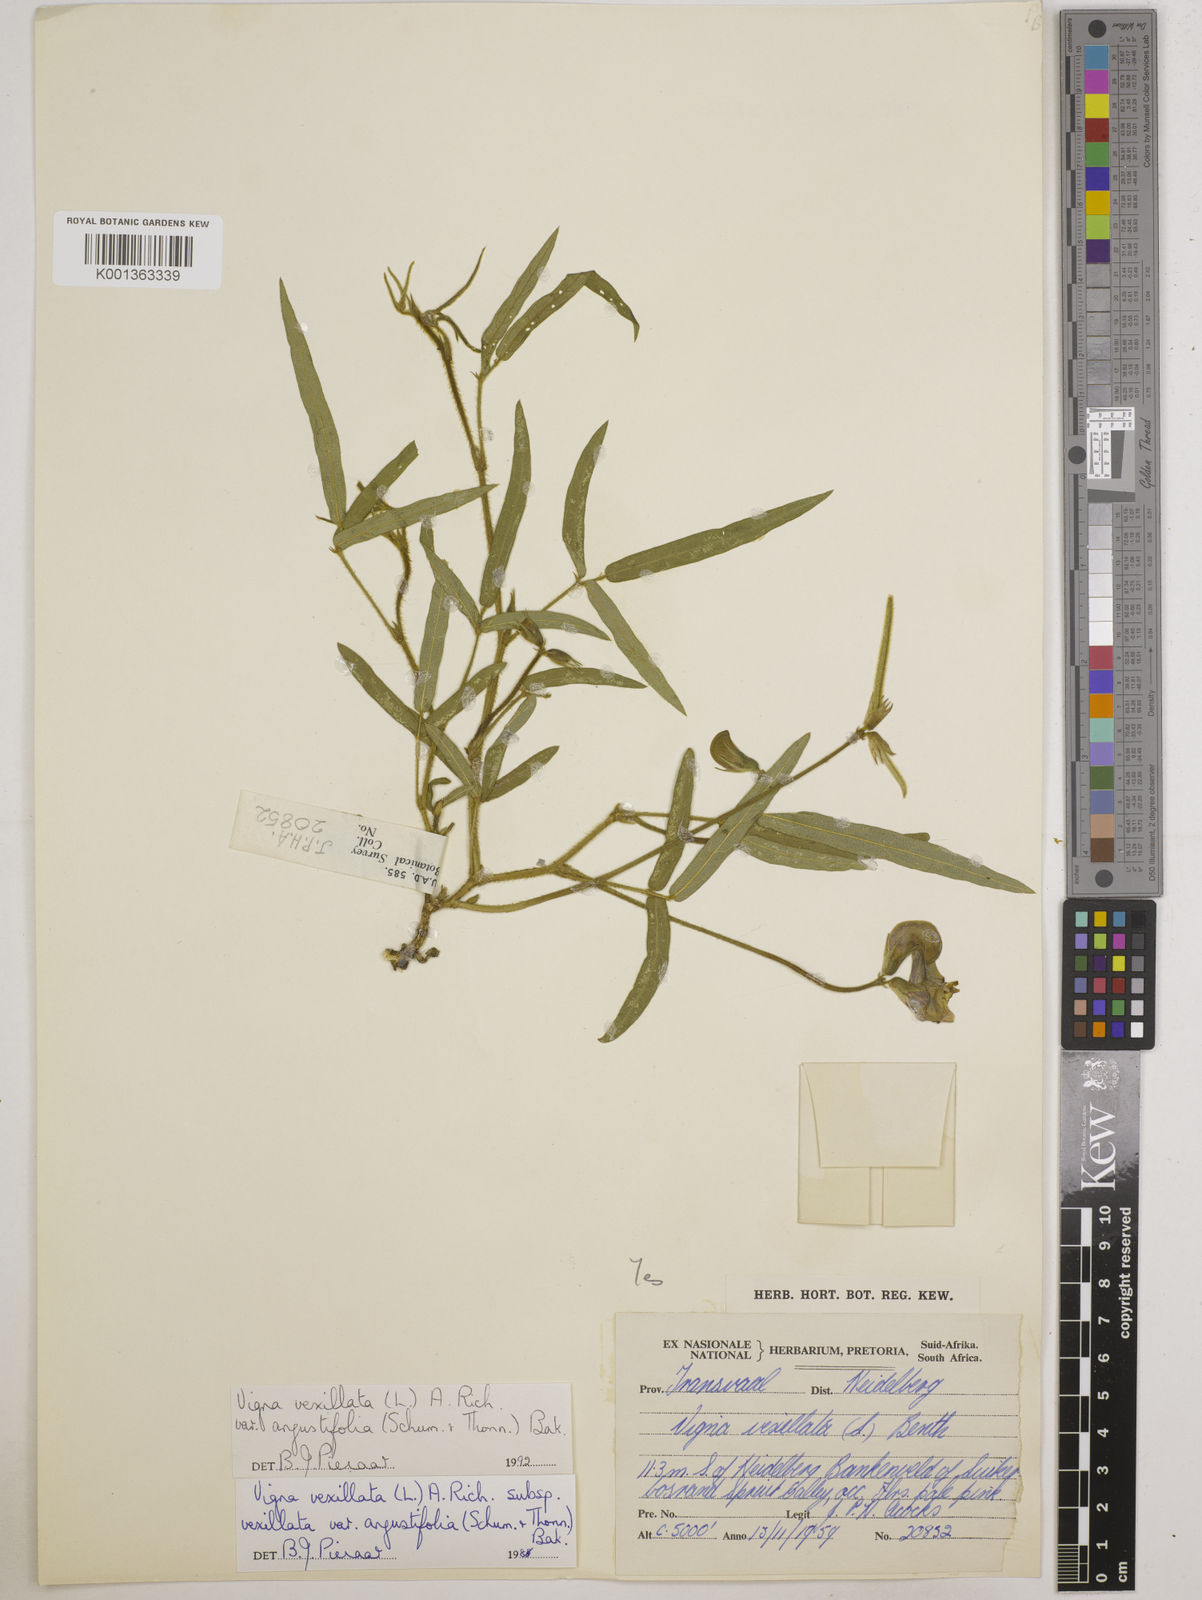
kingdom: Plantae
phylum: Tracheophyta
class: Magnoliopsida
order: Fabales
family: Fabaceae
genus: Vigna
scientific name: Vigna
